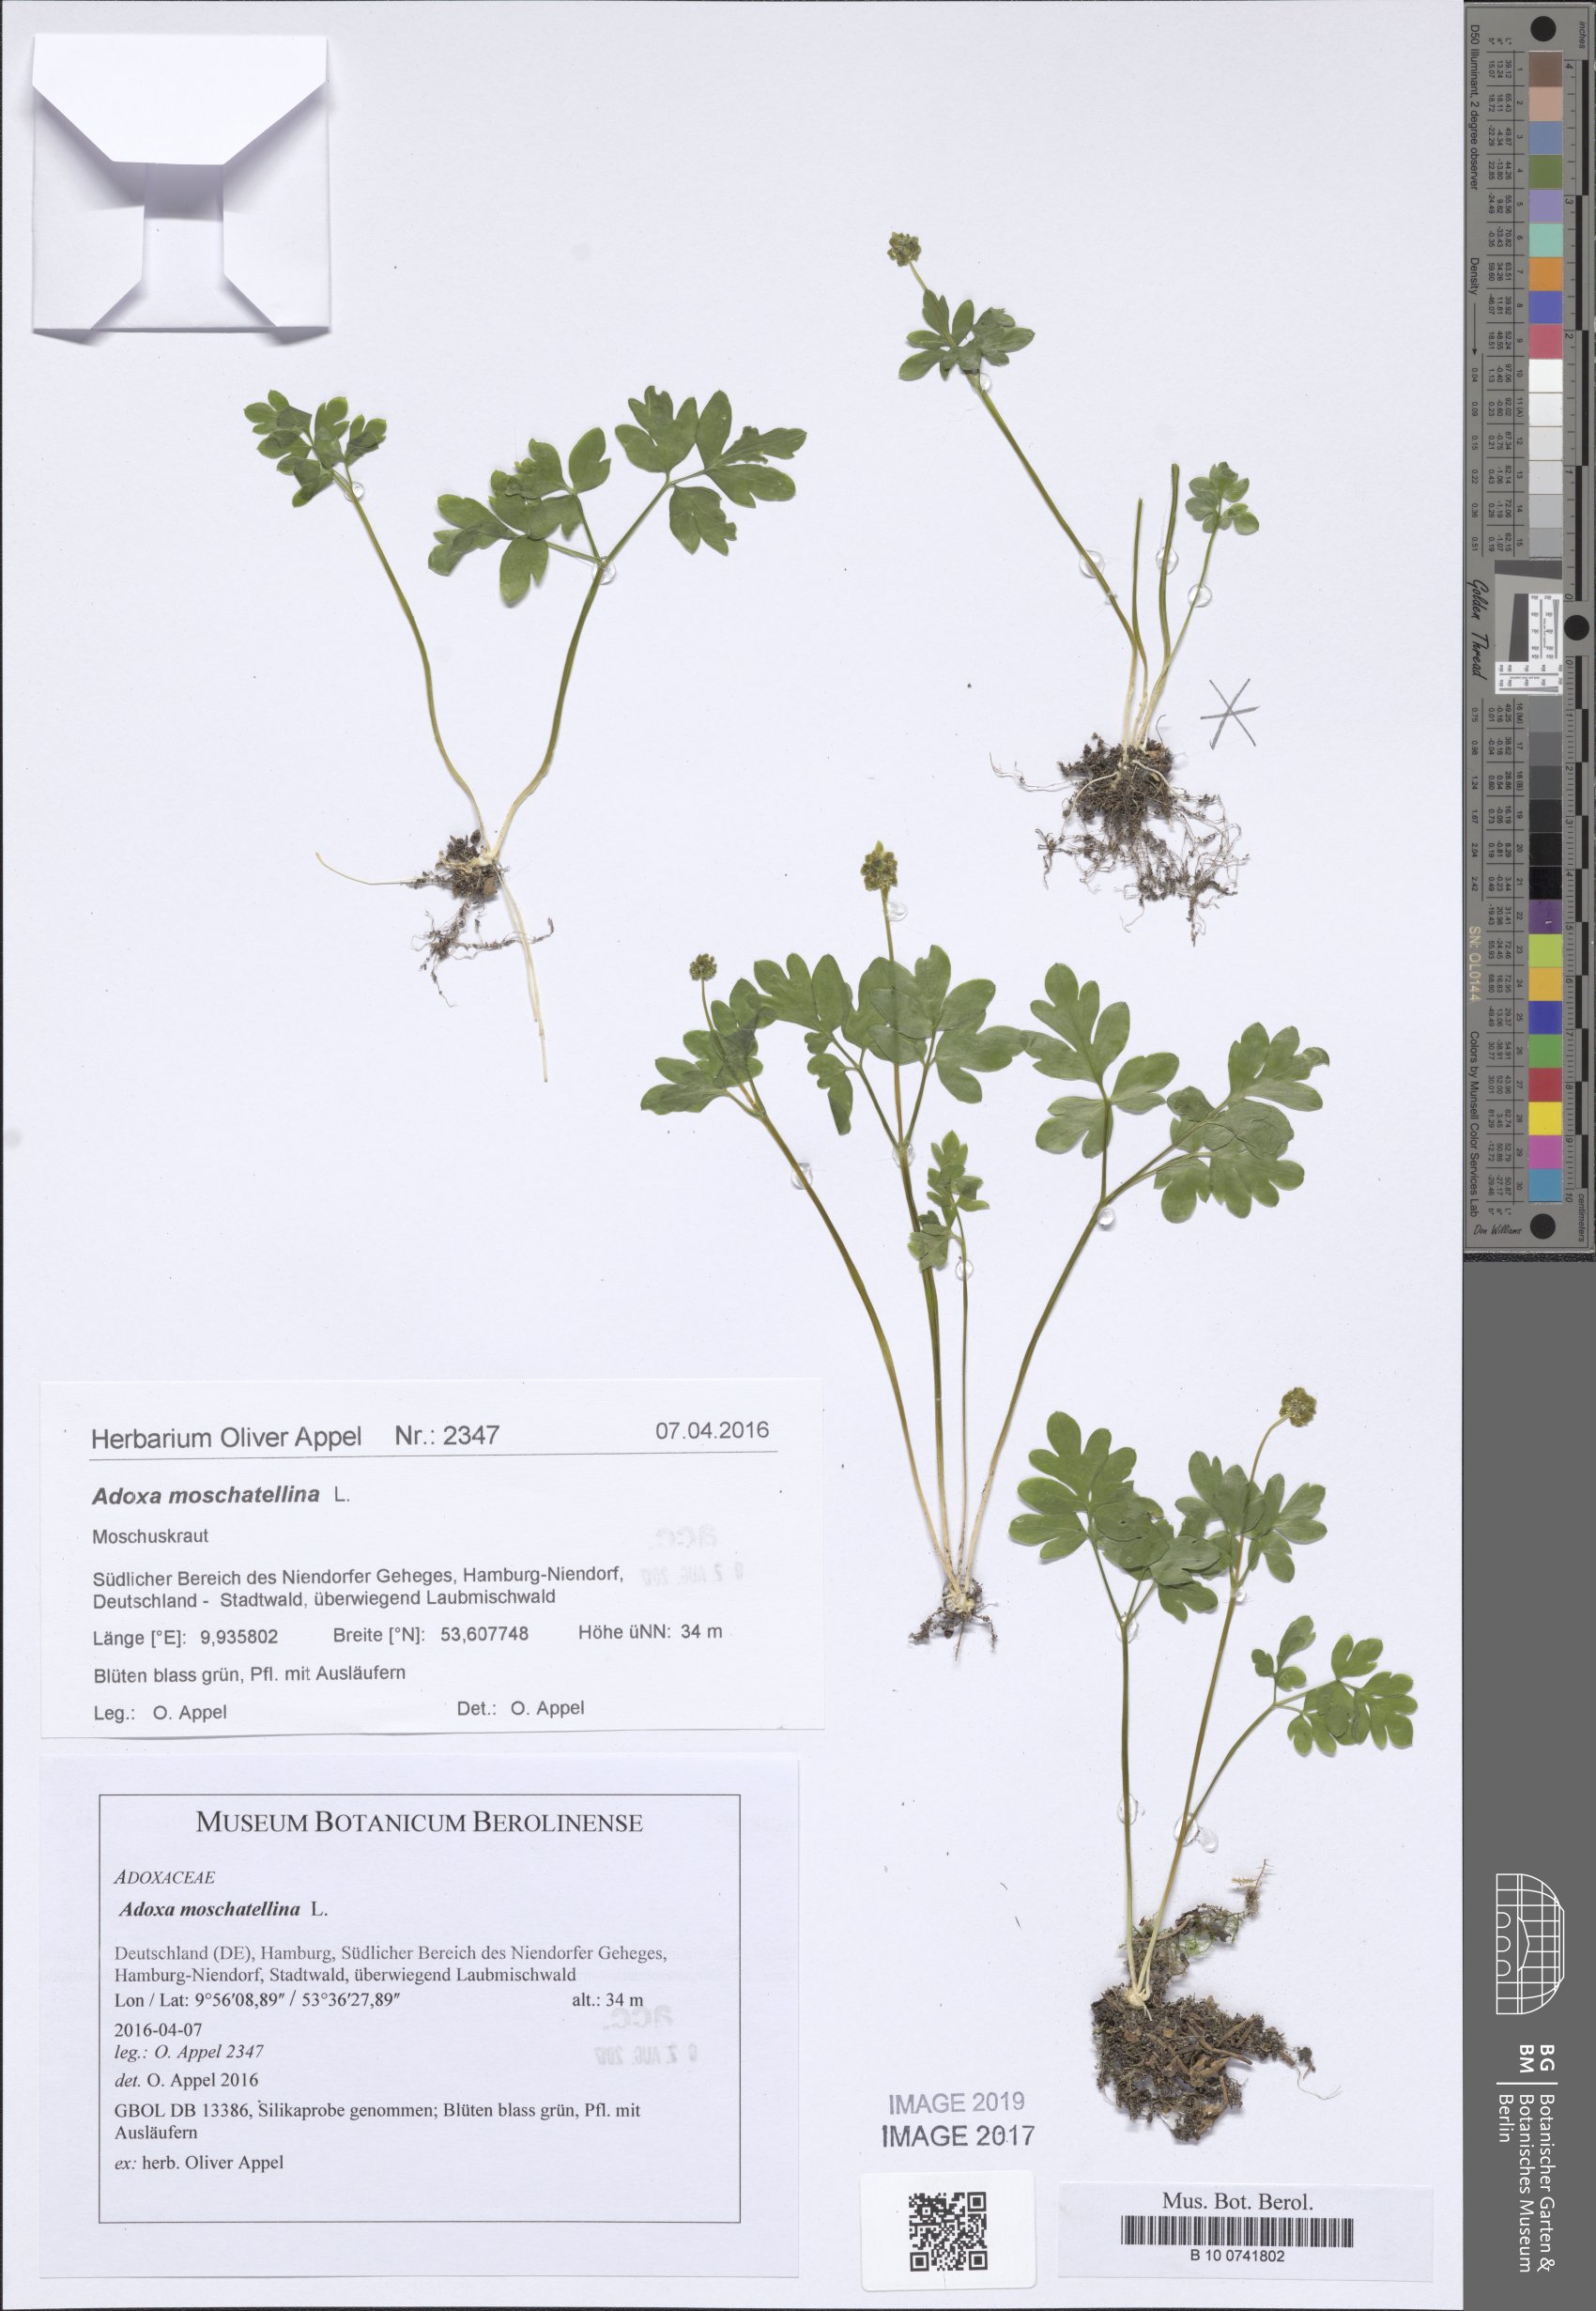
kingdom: Plantae
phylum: Tracheophyta
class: Magnoliopsida
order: Dipsacales
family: Viburnaceae
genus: Adoxa
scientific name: Adoxa moschatellina
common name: Moschatel
